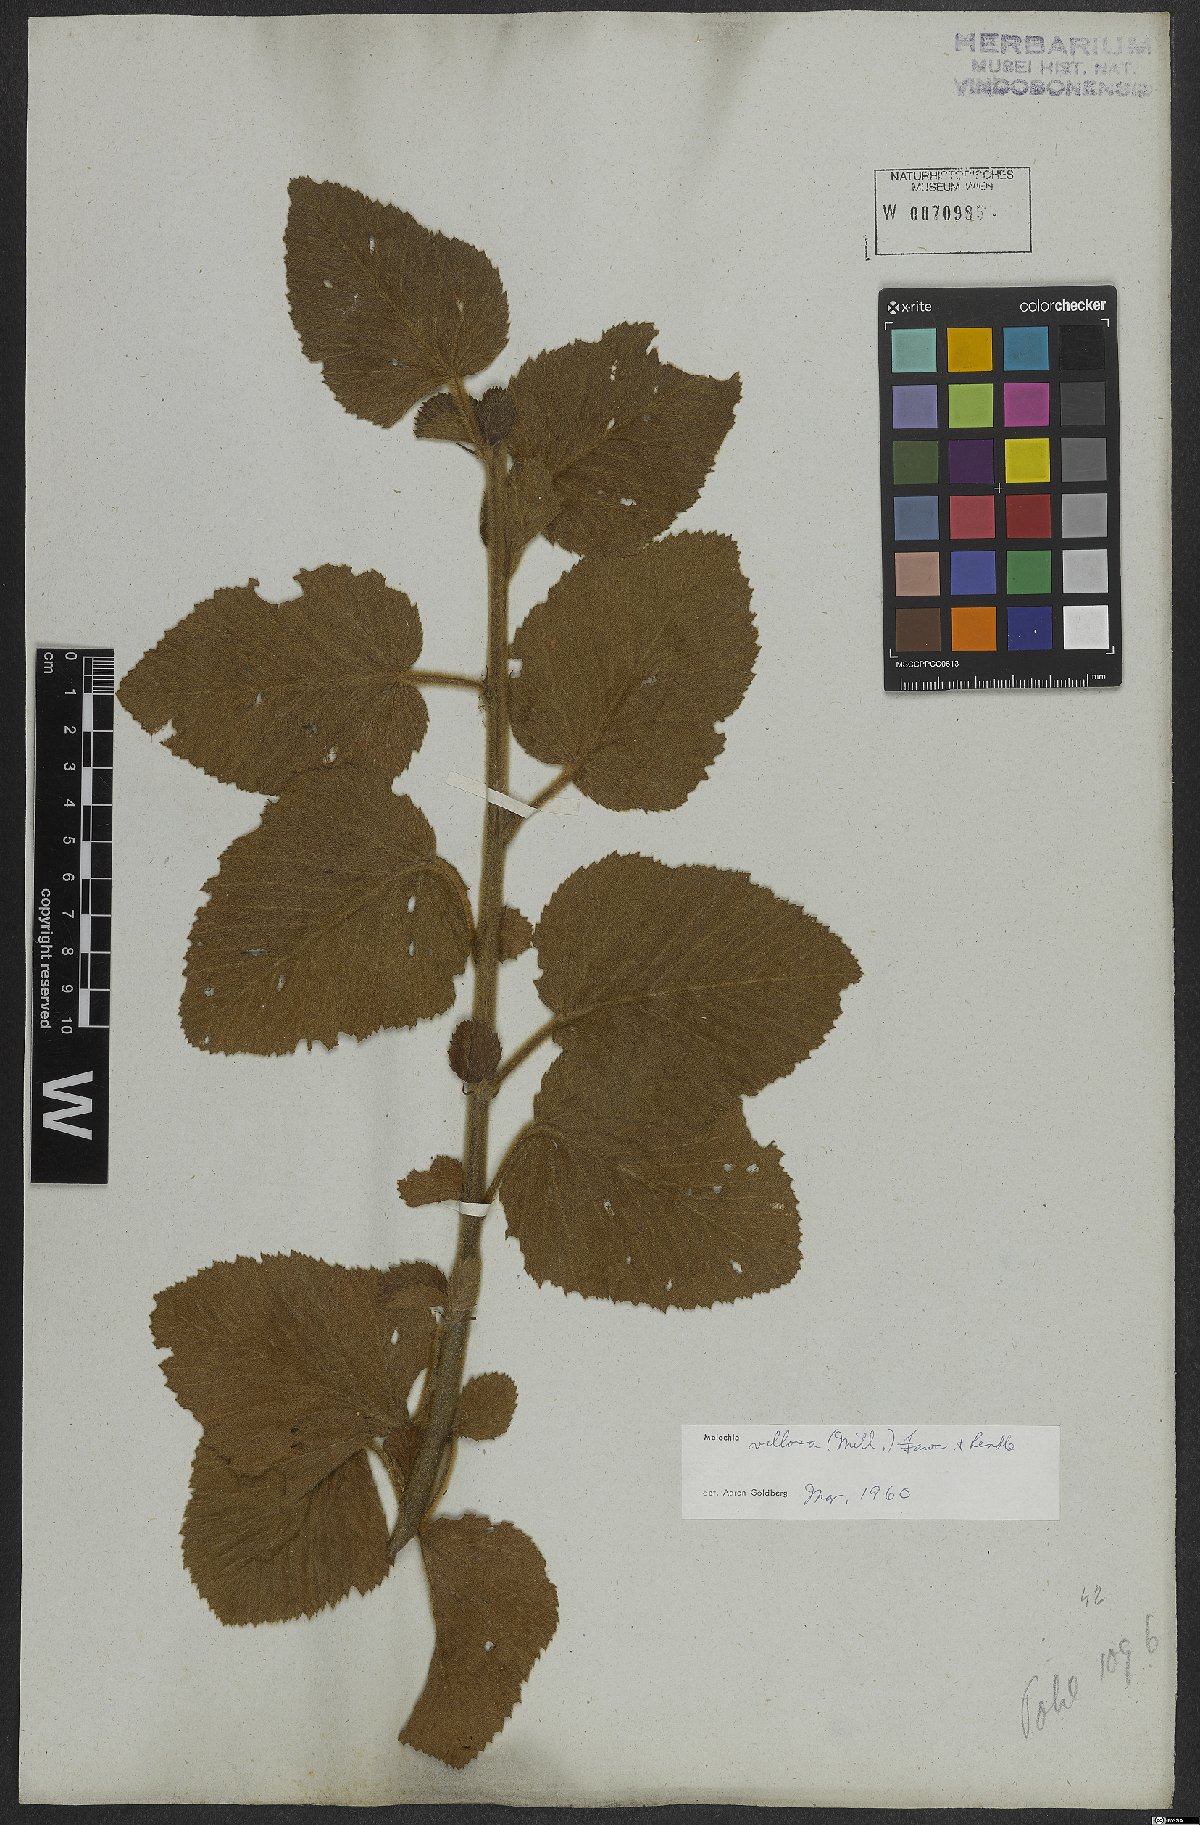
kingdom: Plantae
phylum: Tracheophyta
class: Magnoliopsida
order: Malvales
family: Malvaceae
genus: Melochia
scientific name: Melochia spicata
